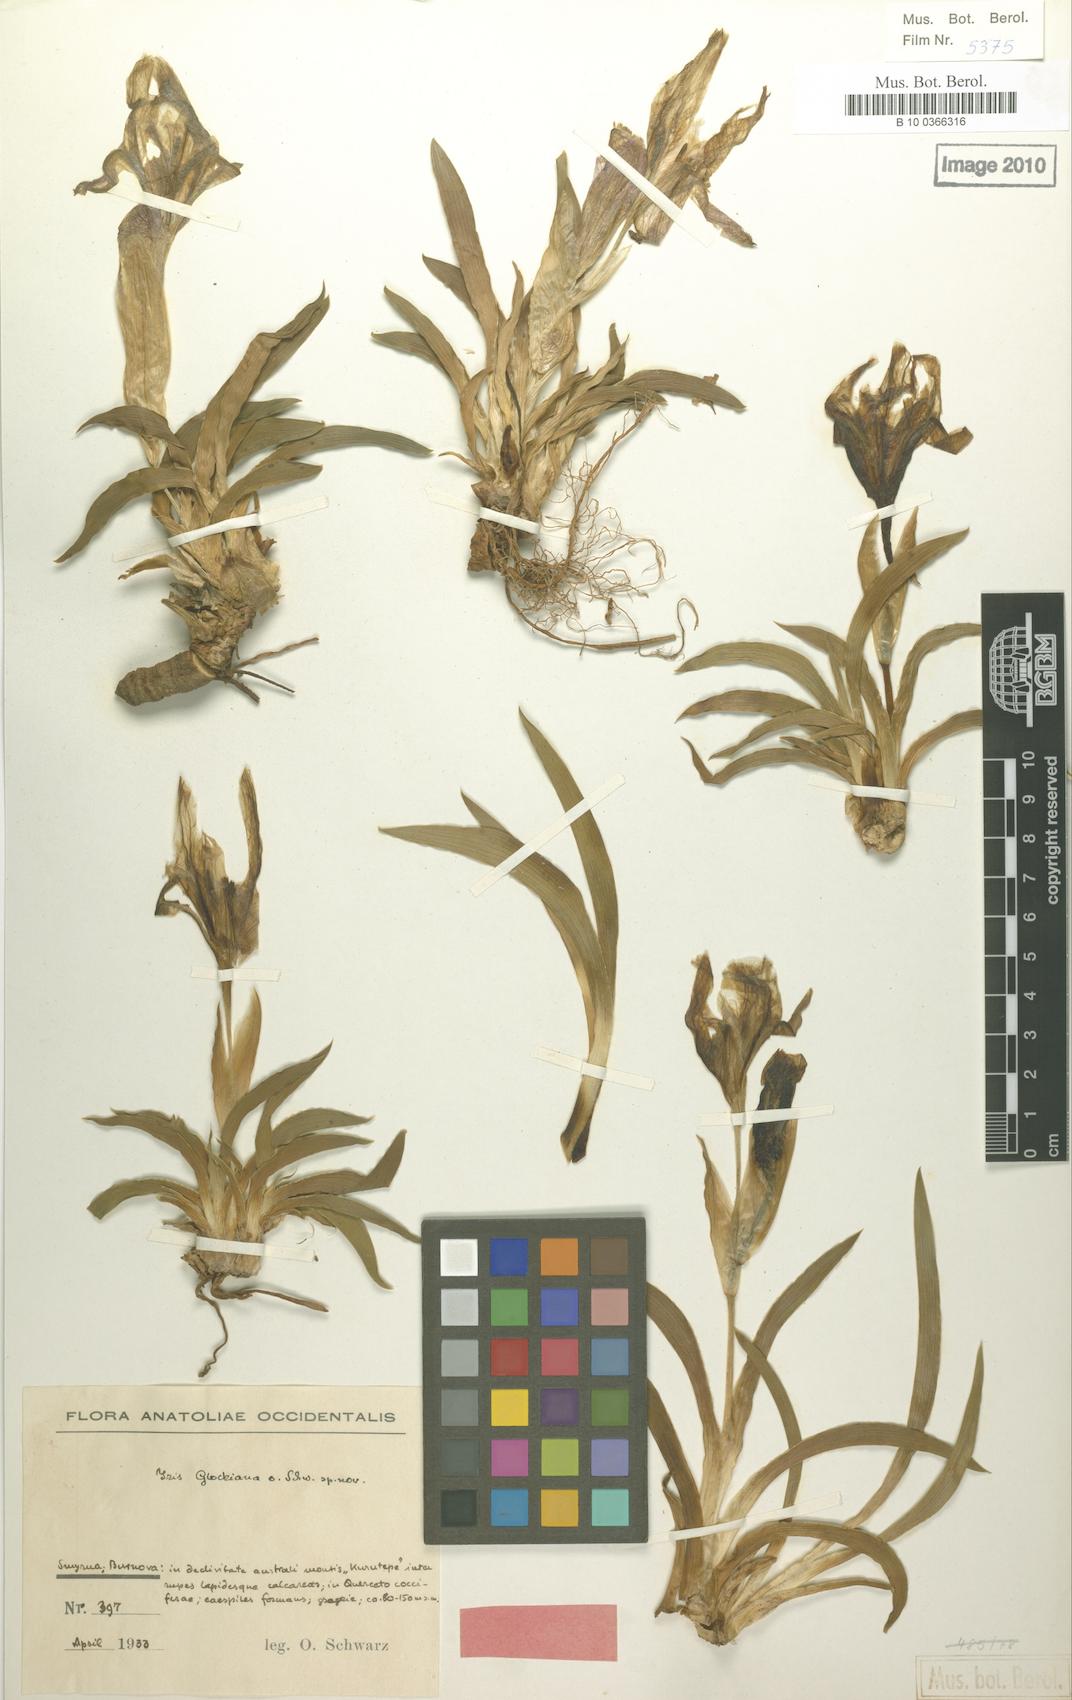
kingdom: Plantae
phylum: Tracheophyta
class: Liliopsida
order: Asparagales
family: Iridaceae
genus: Iris
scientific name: Iris suaveolens
